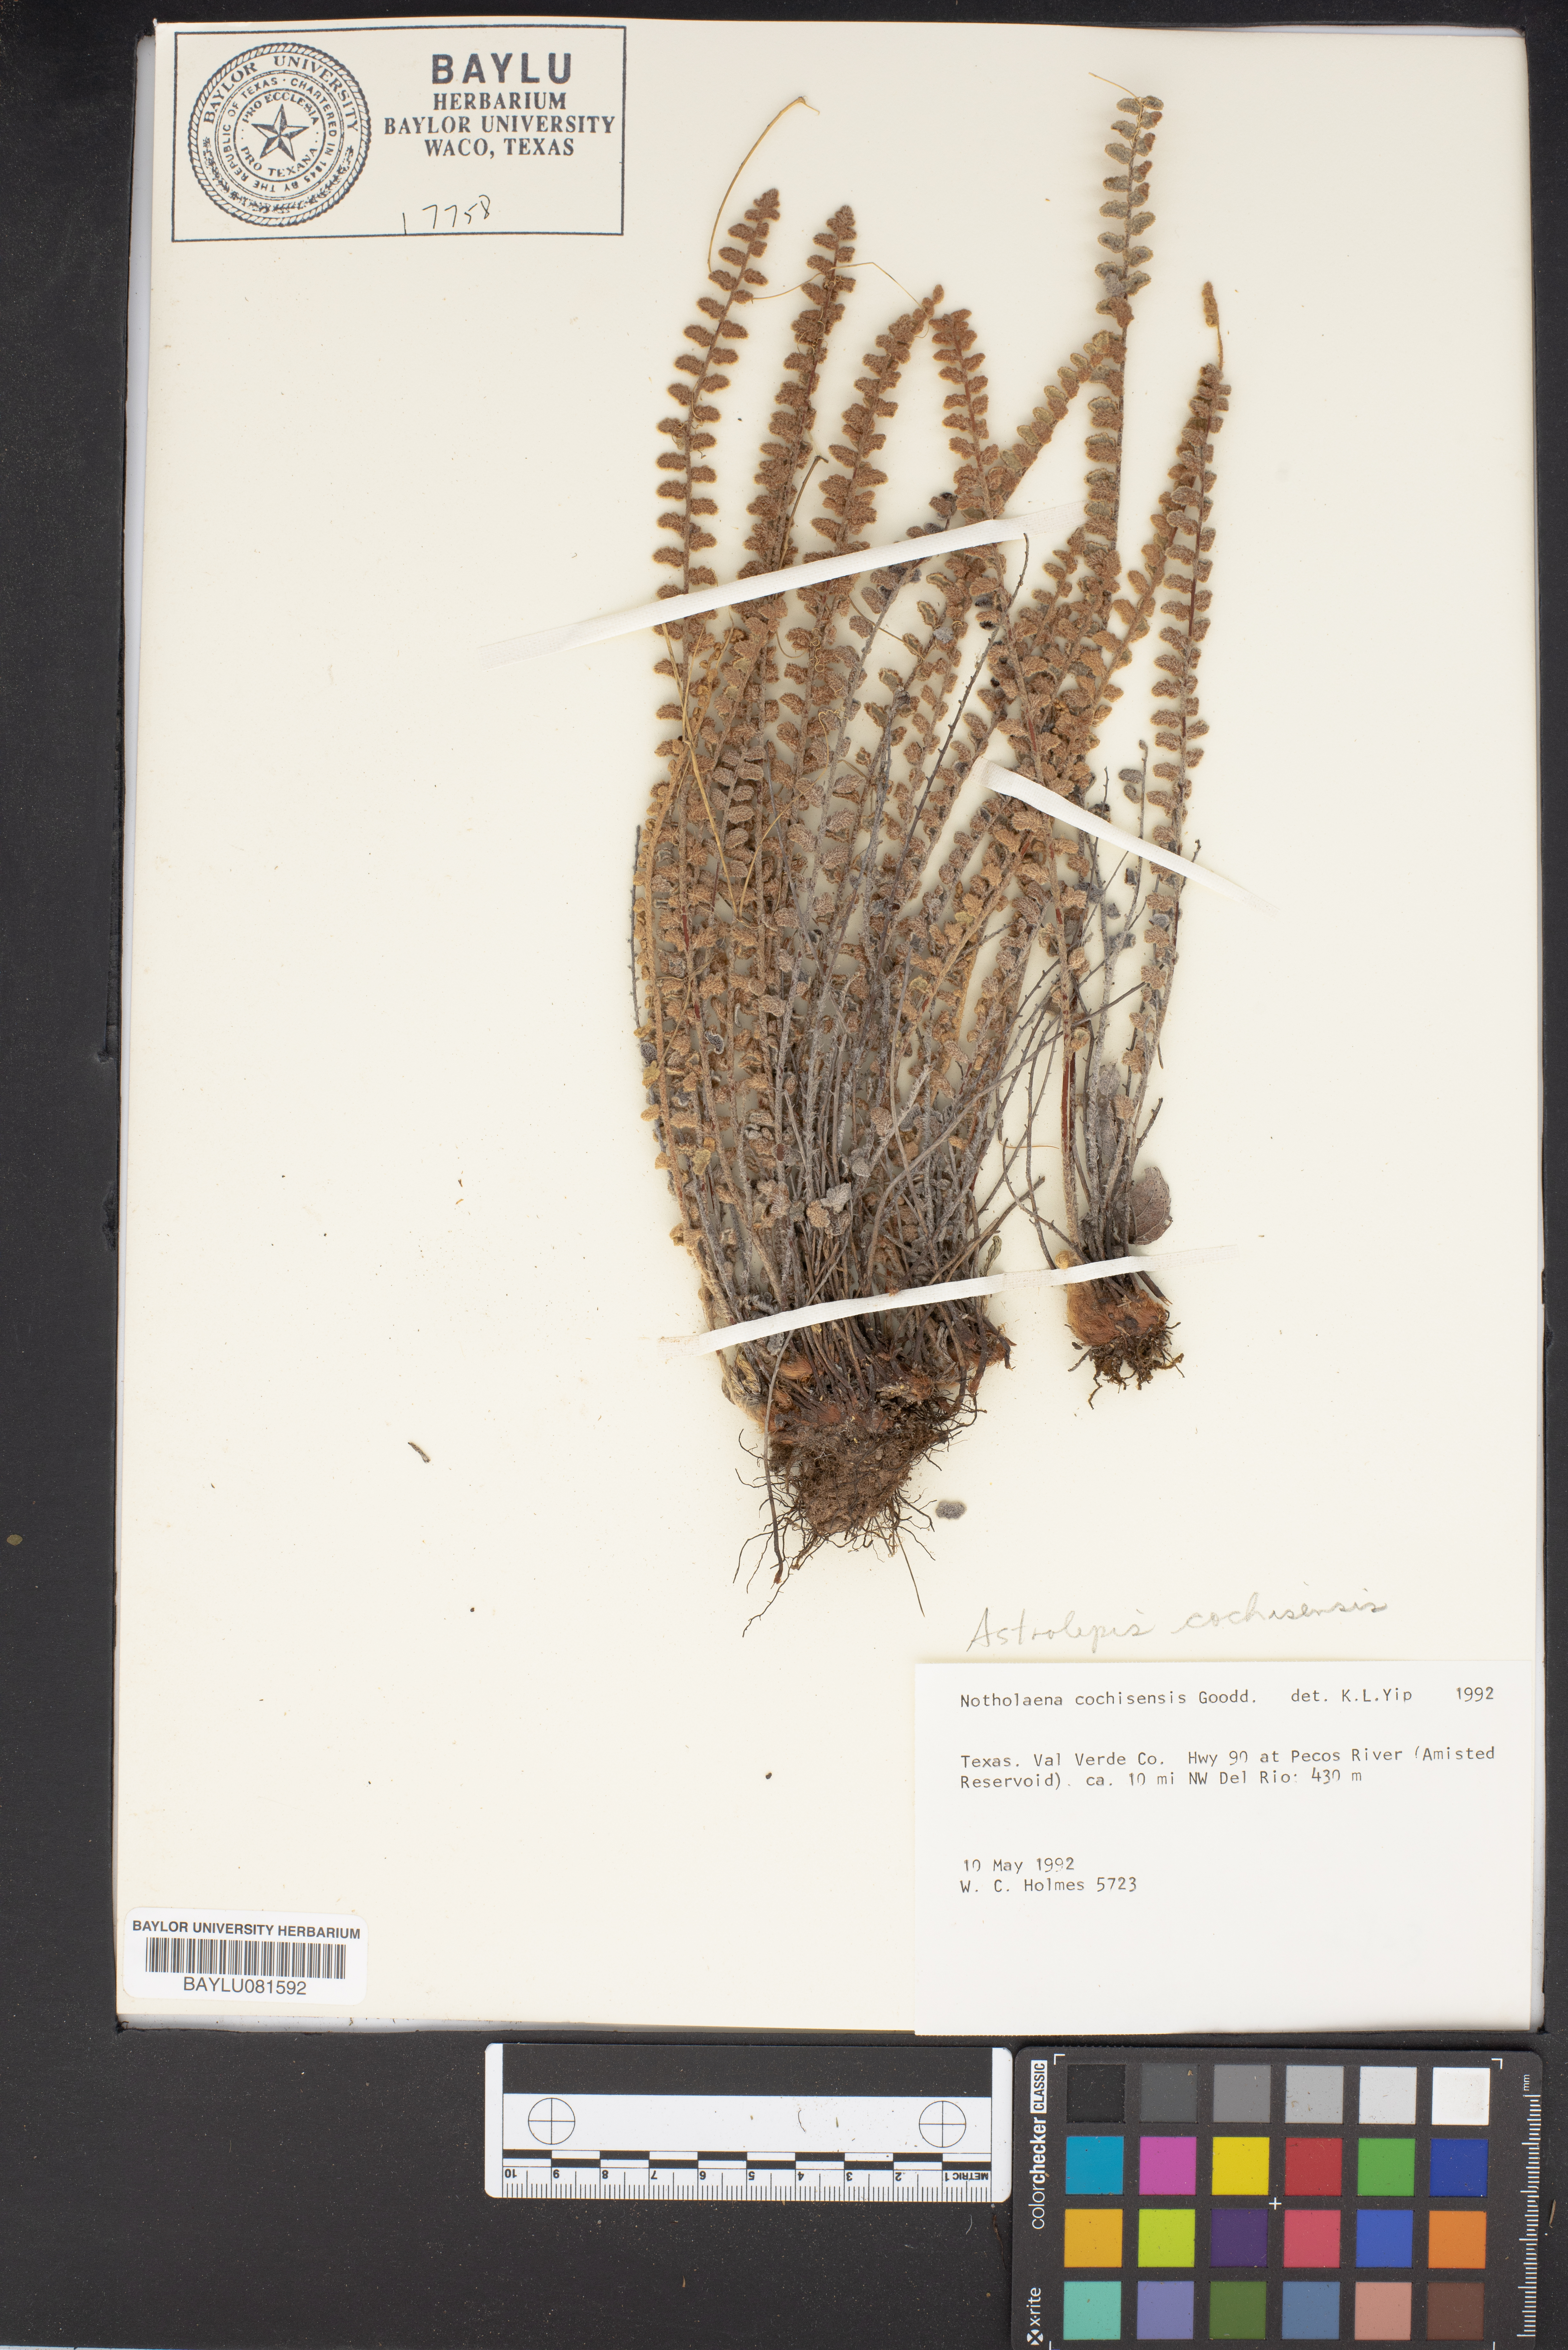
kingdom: Plantae
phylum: Tracheophyta
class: Polypodiopsida
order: Polypodiales
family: Pteridaceae
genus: Astrolepis
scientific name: Astrolepis cochisensis
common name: Scaly cloak fern
